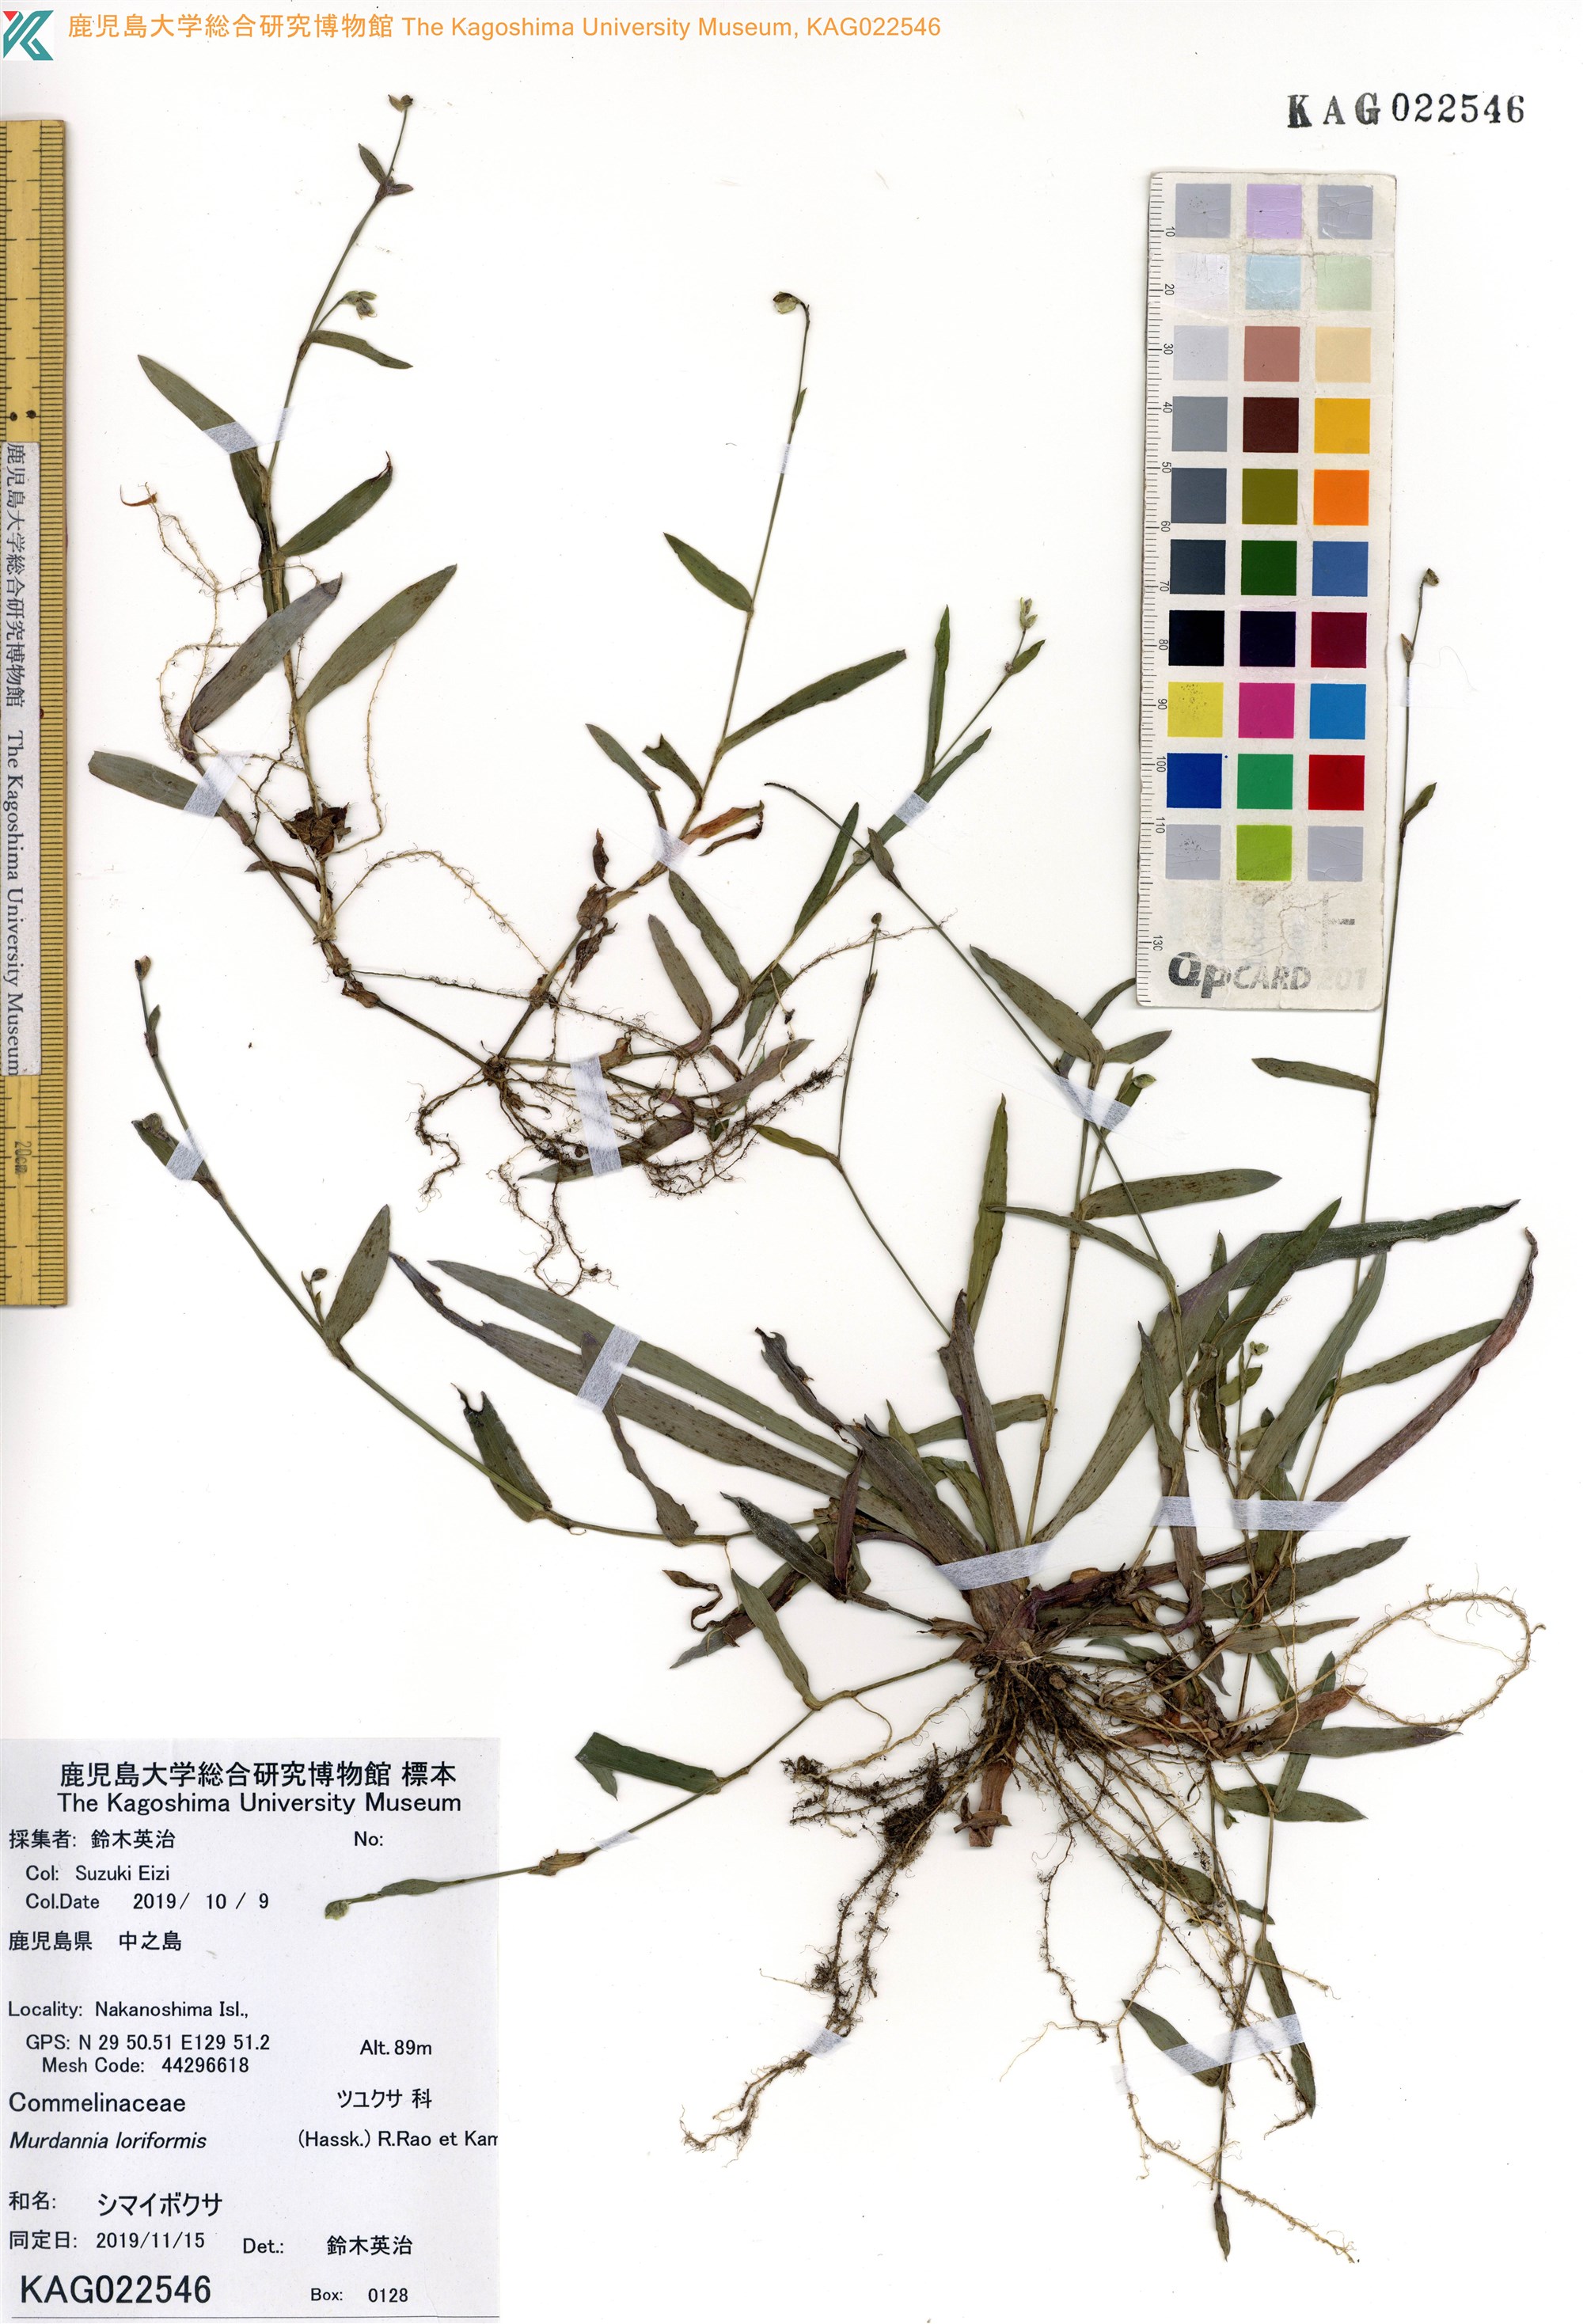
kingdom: Plantae
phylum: Tracheophyta
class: Liliopsida
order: Commelinales
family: Commelinaceae
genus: Murdannia
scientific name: Murdannia loriformis
